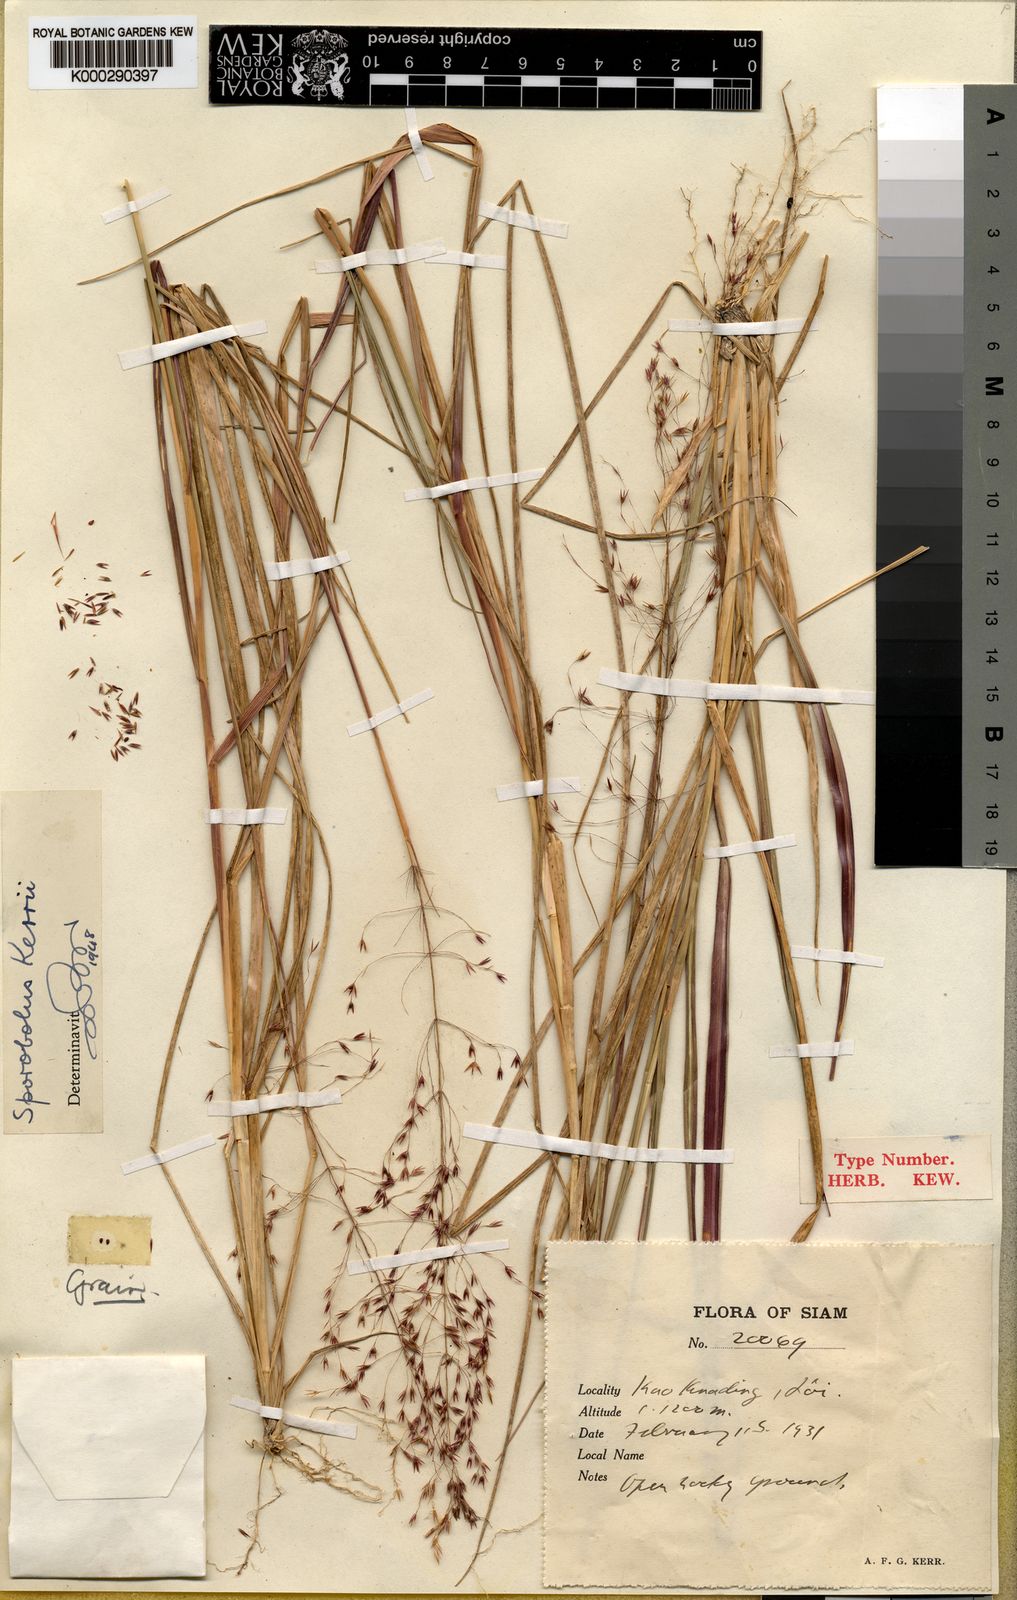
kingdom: Plantae
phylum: Tracheophyta
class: Liliopsida
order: Poales
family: Poaceae
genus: Sporobolus
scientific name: Sporobolus kerrii
